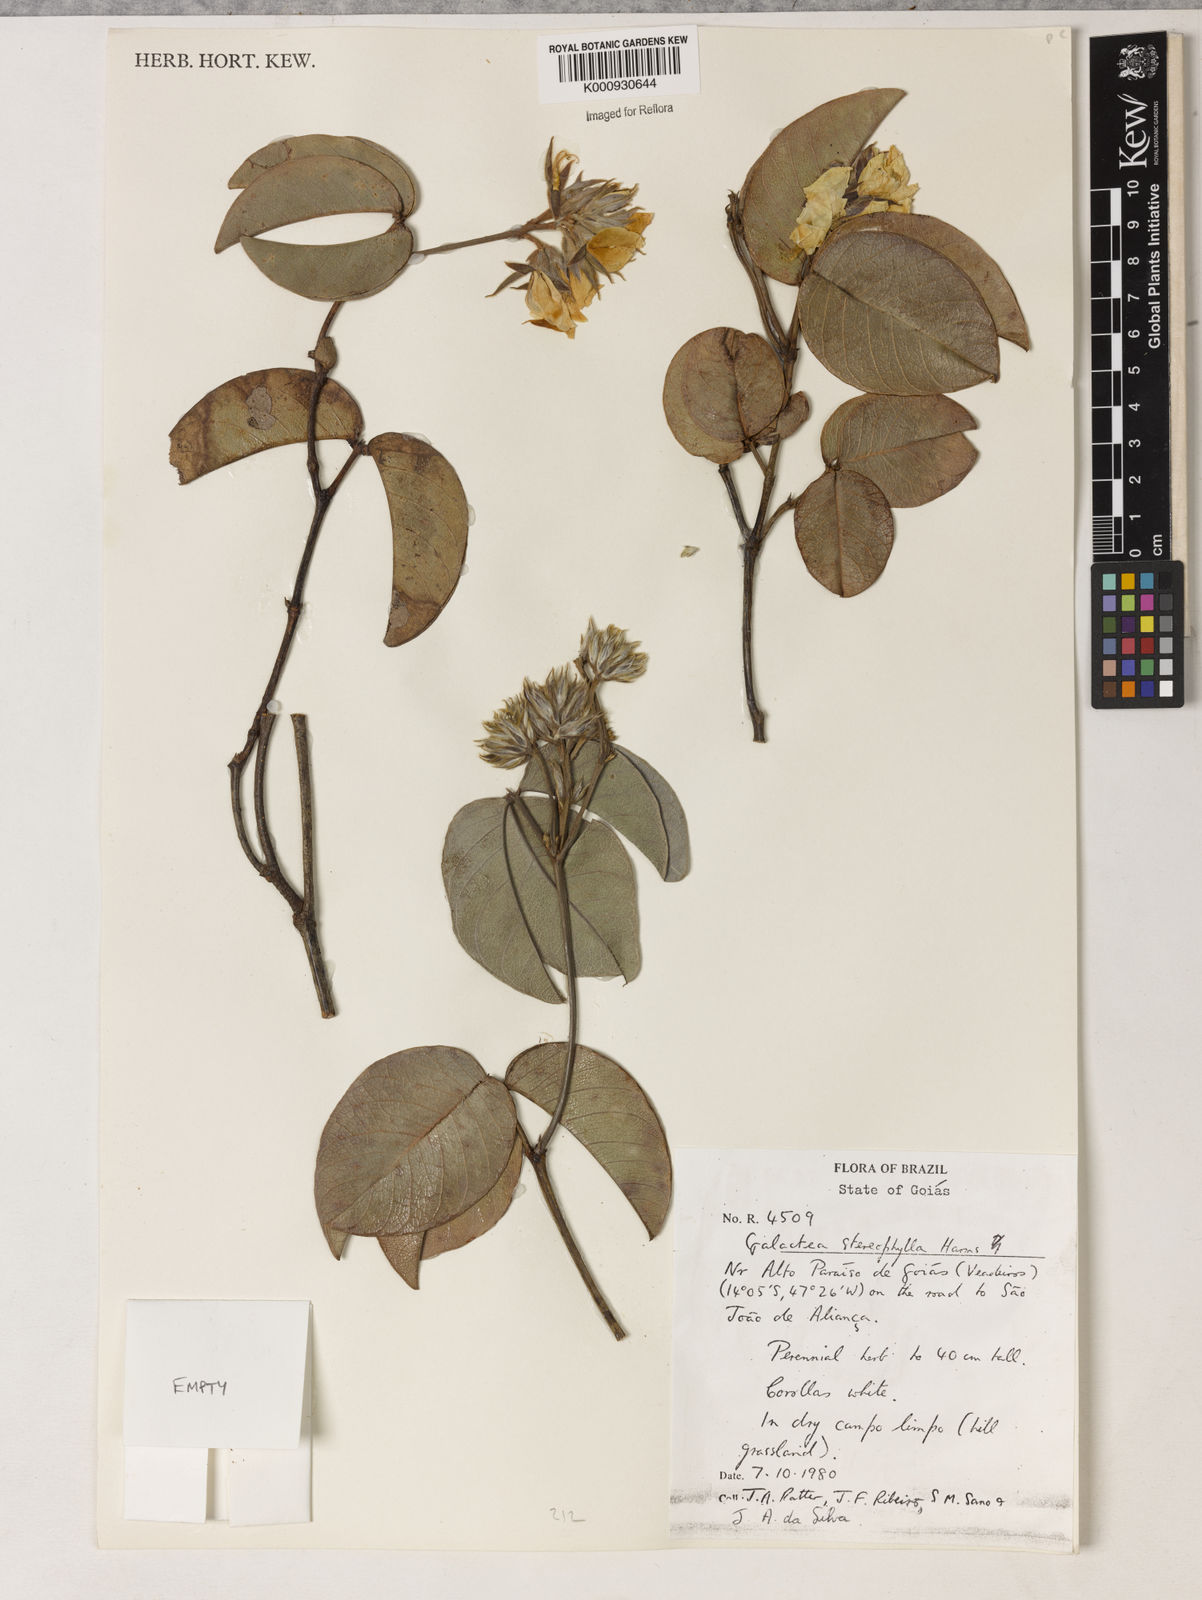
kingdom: Plantae
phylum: Tracheophyta
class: Magnoliopsida
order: Fabales
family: Fabaceae
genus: Betencourtia
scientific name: Betencourtia stereophylla
